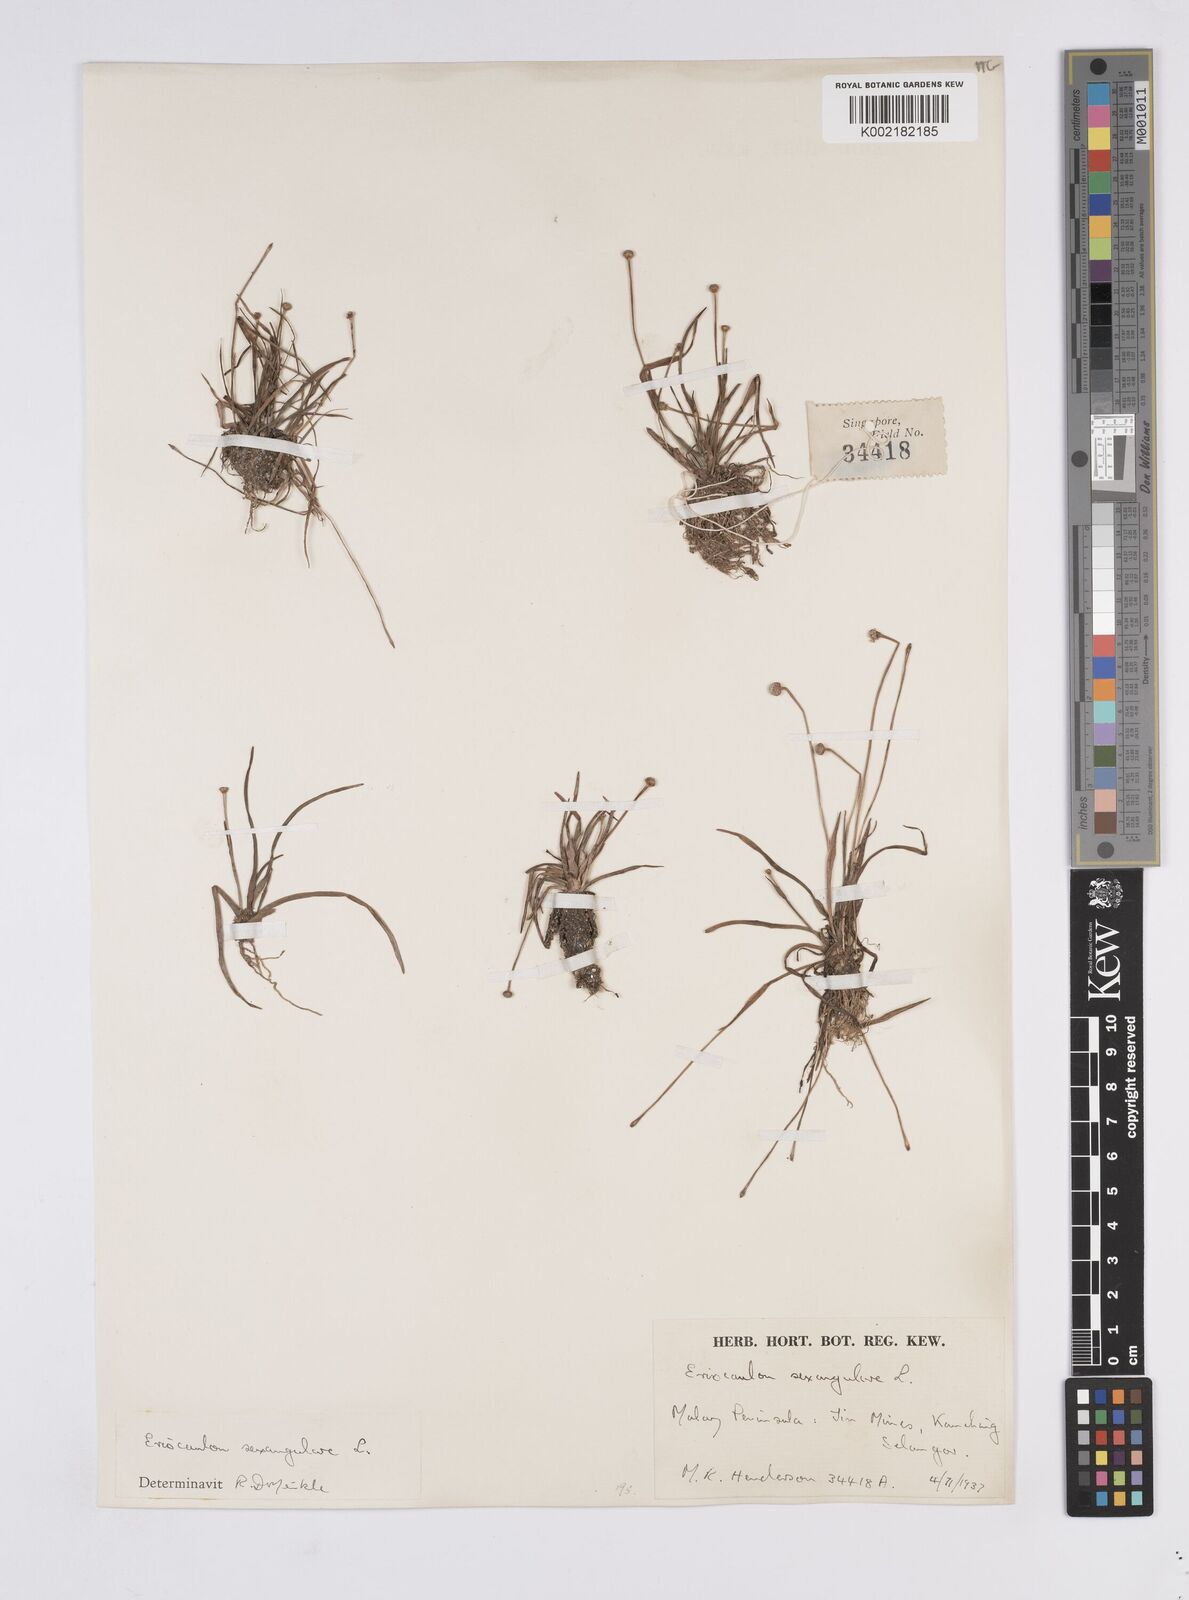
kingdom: Plantae
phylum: Tracheophyta
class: Liliopsida
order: Poales
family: Eriocaulaceae
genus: Eriocaulon
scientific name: Eriocaulon sexangulare
